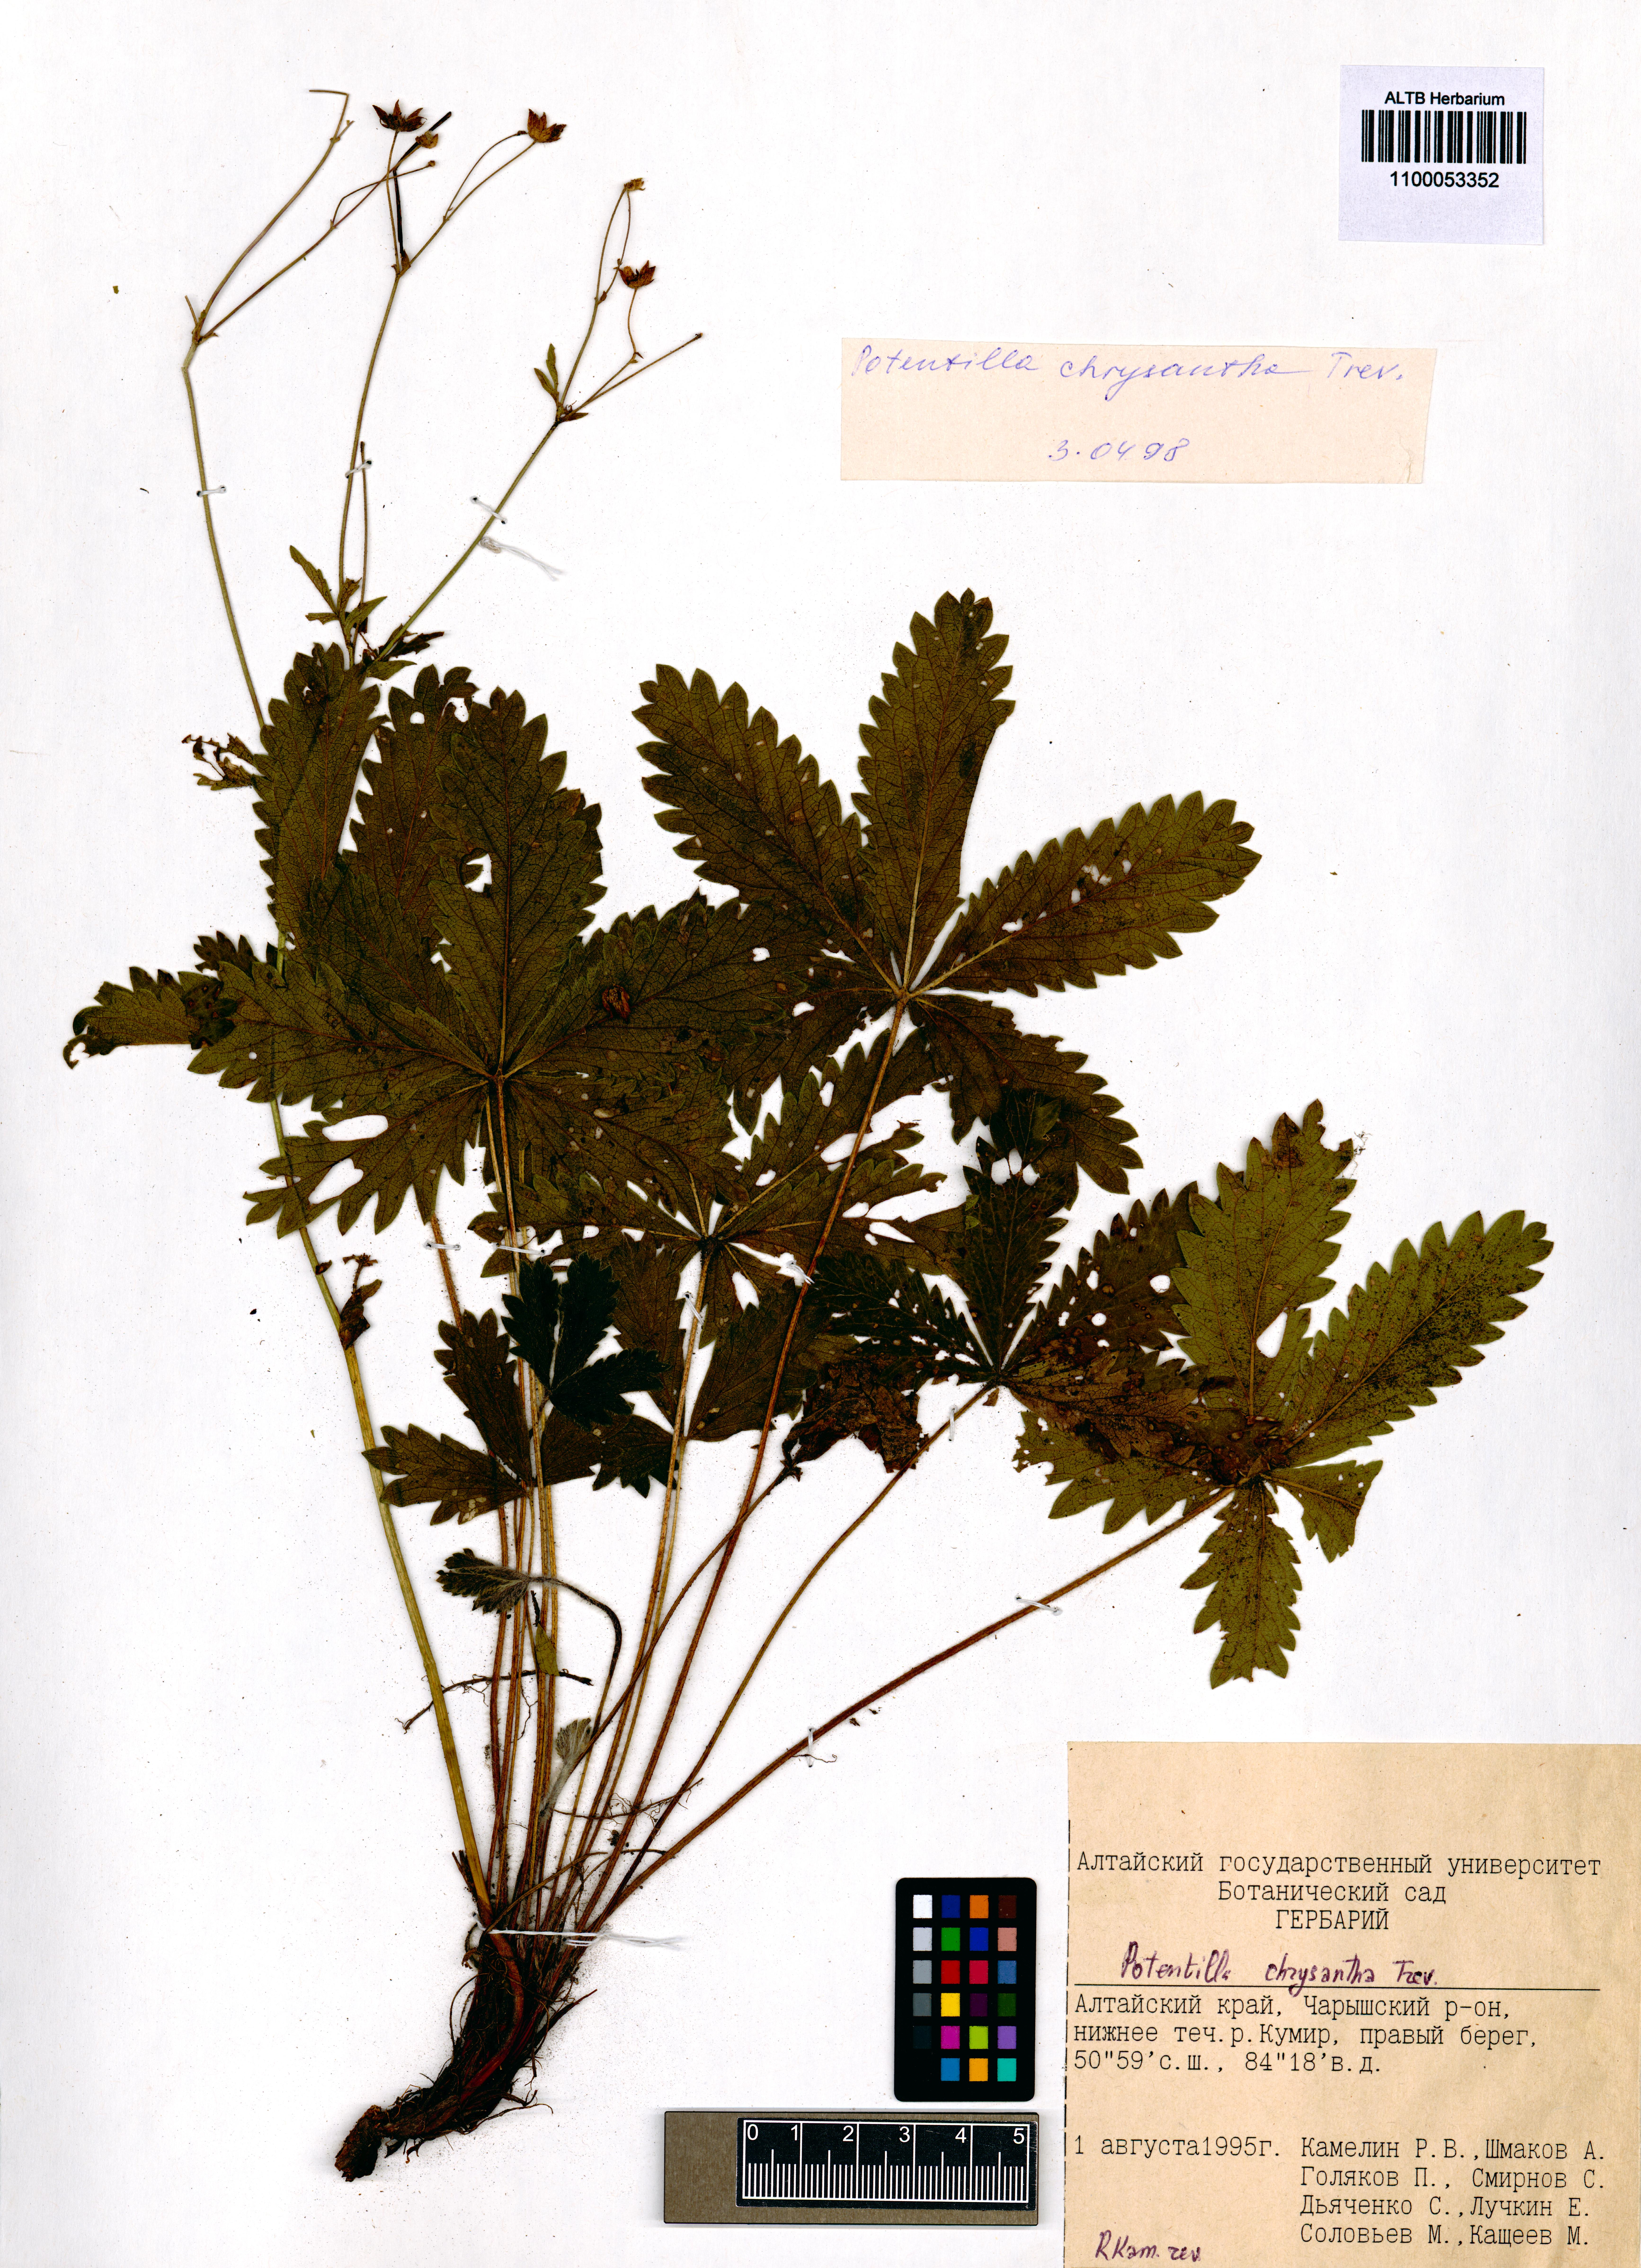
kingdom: Plantae
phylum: Tracheophyta
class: Magnoliopsida
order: Rosales
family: Rosaceae
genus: Potentilla
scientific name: Potentilla chrysantha
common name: Thuringian cinquefoil
